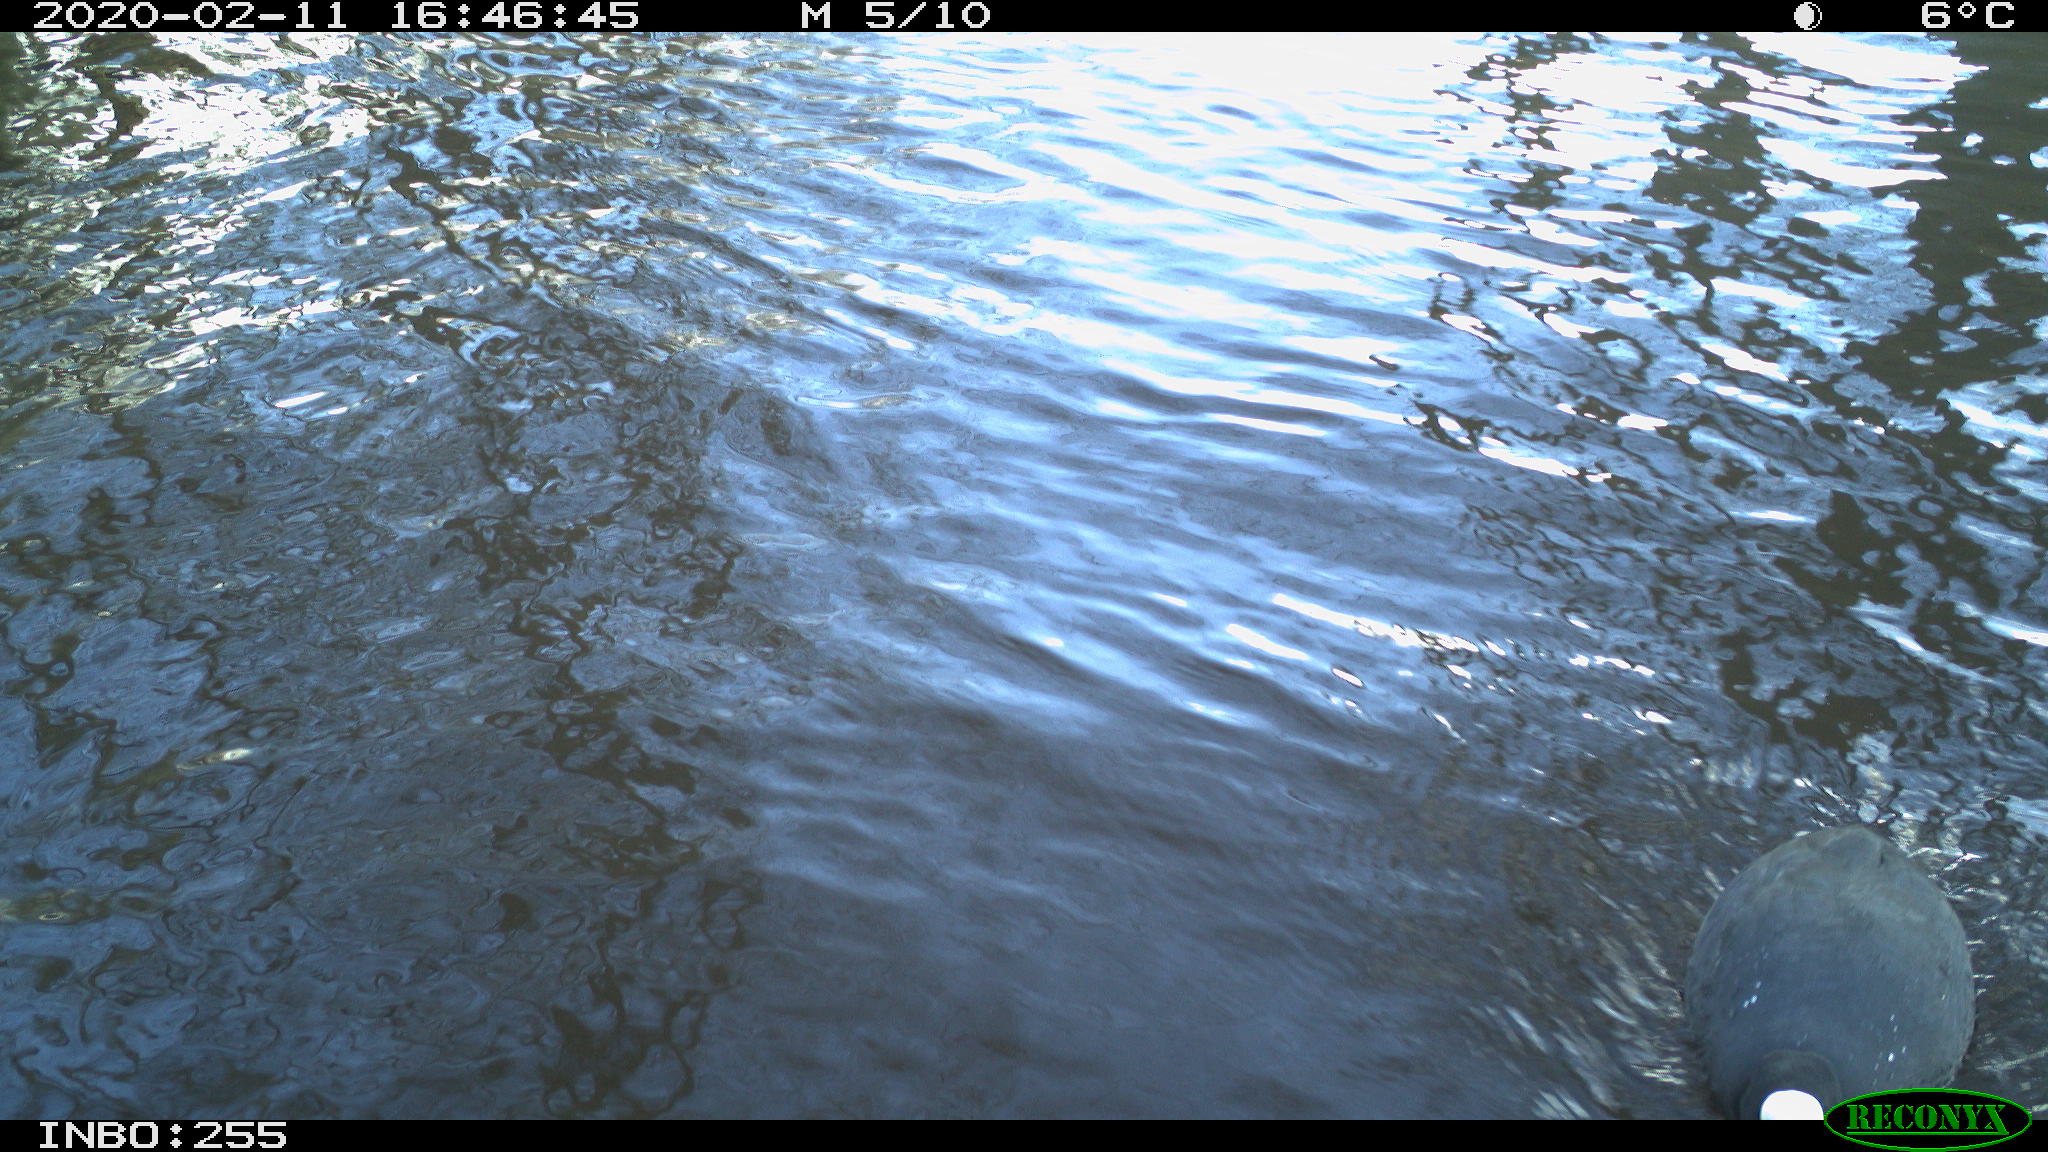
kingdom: Animalia
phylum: Chordata
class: Aves
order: Gruiformes
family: Rallidae
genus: Fulica
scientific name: Fulica atra
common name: Eurasian coot
